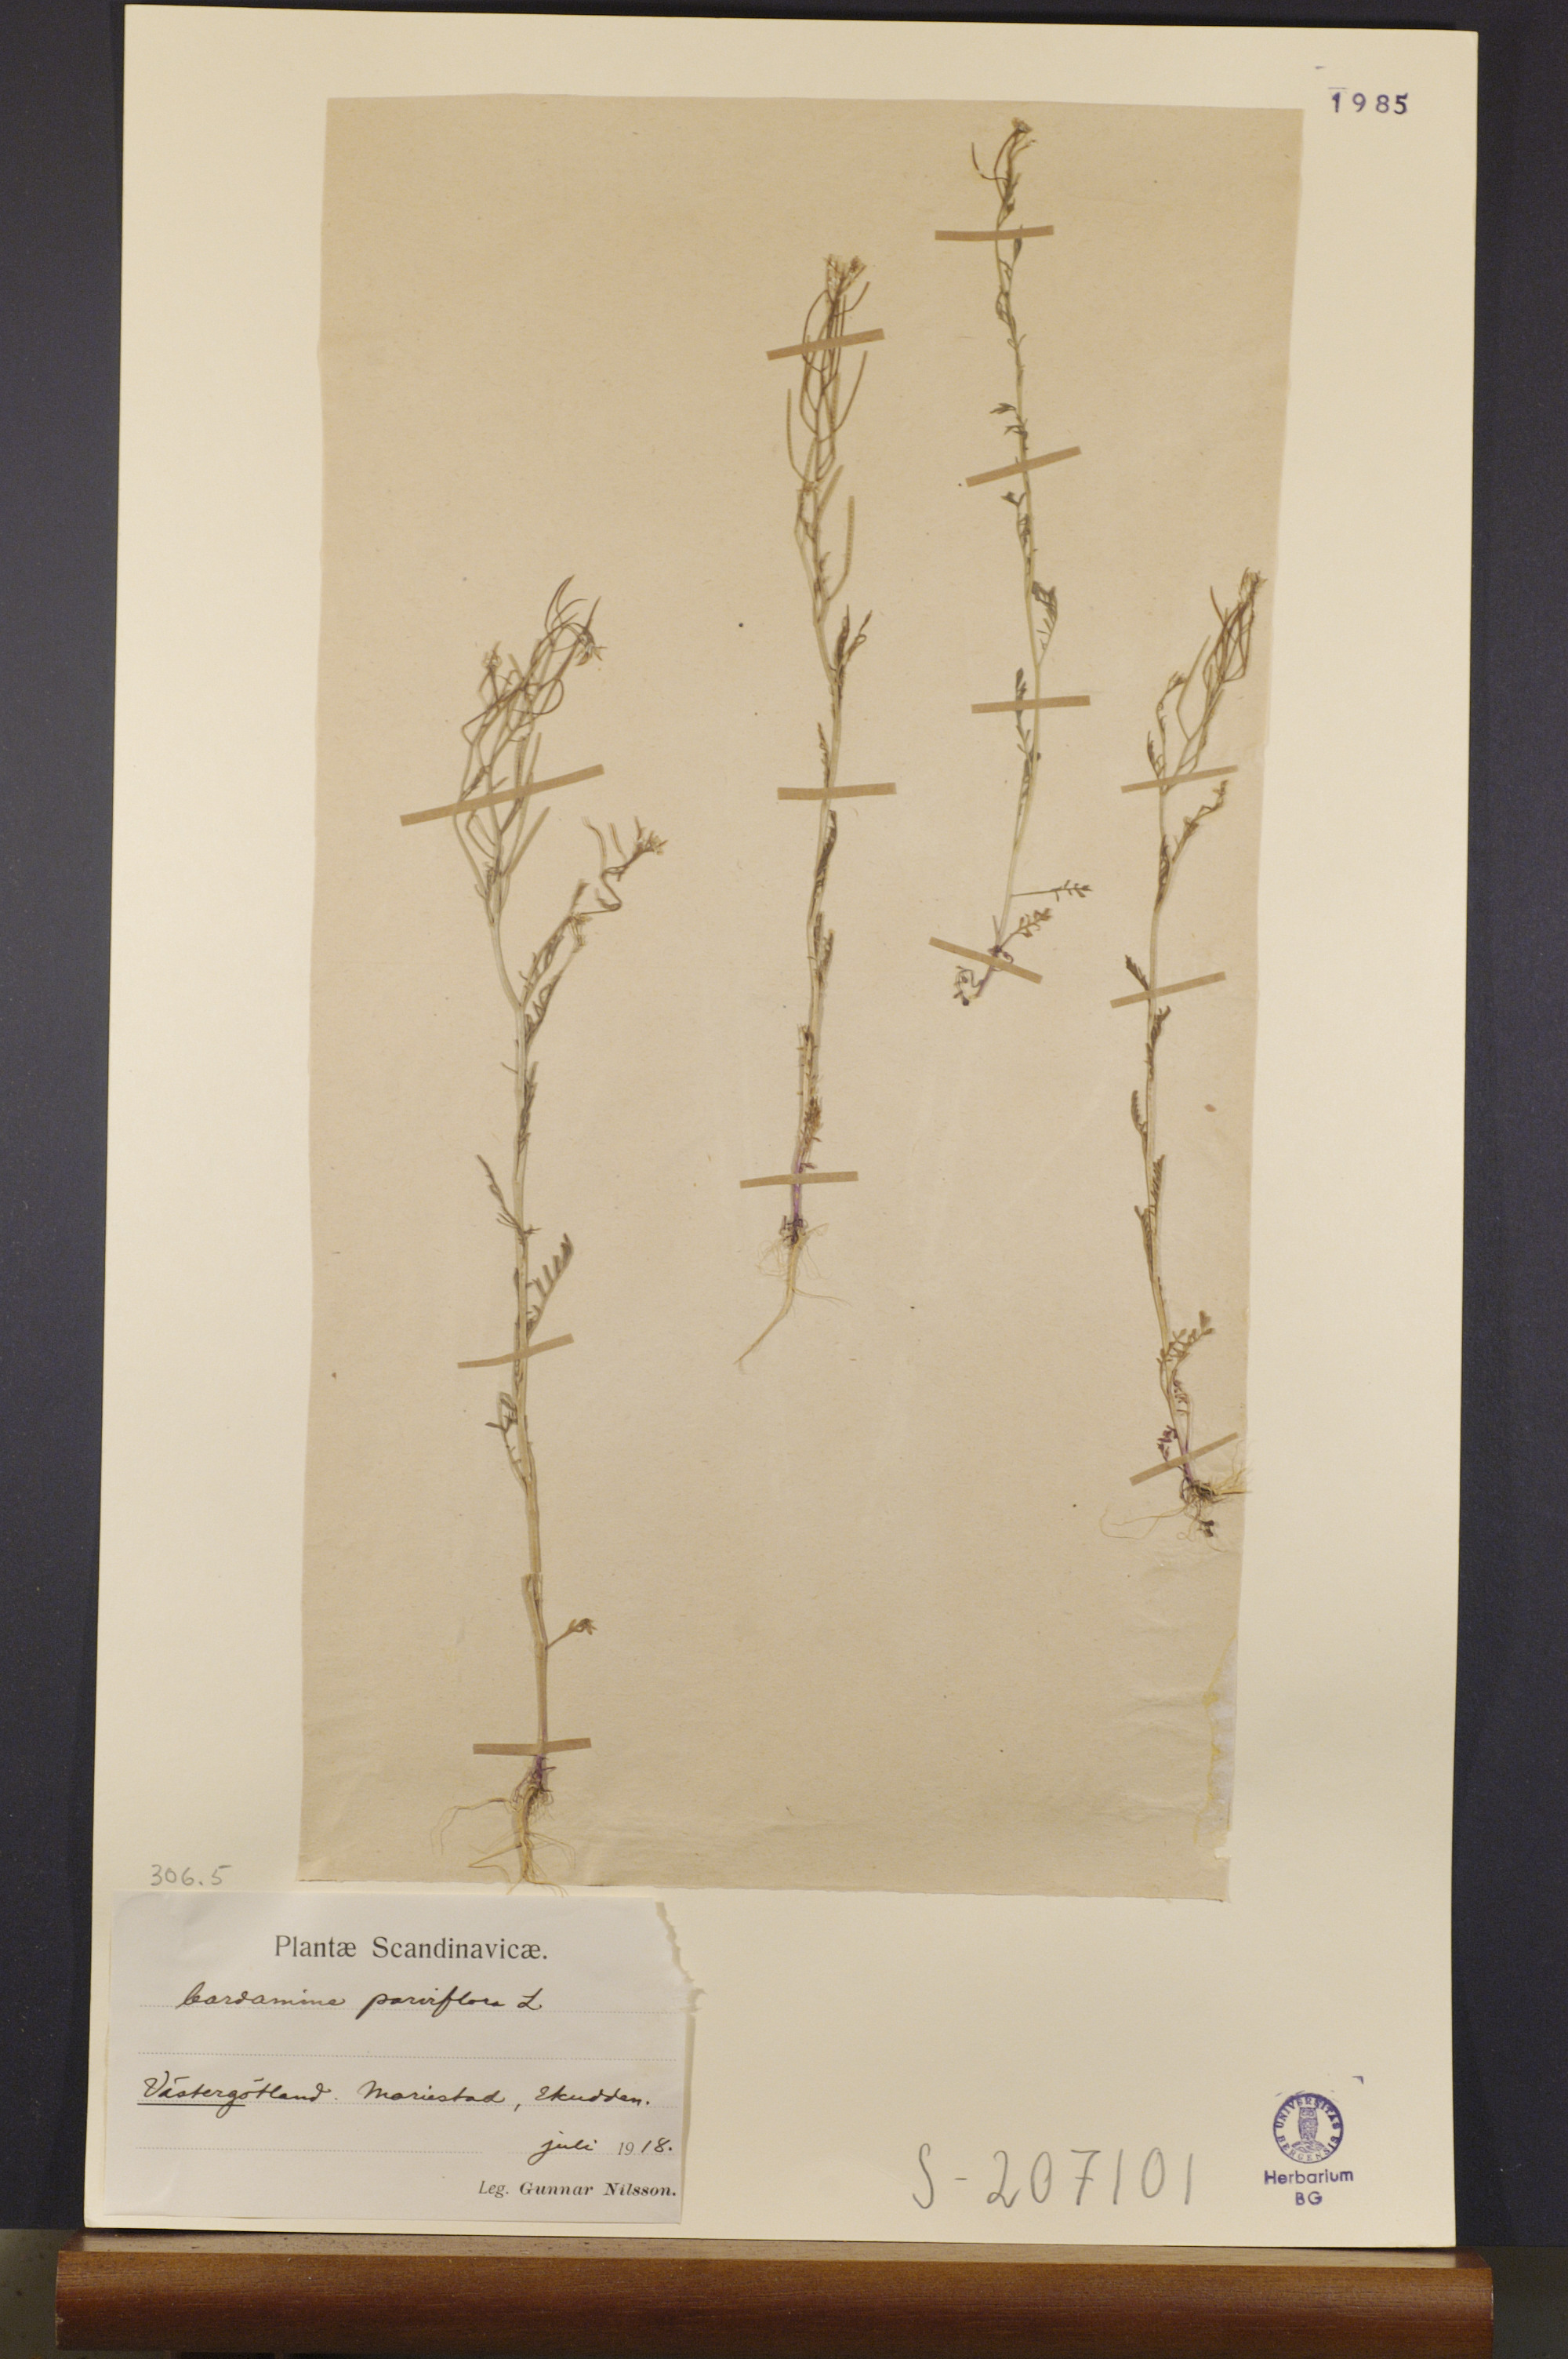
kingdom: Plantae
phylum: Tracheophyta
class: Magnoliopsida
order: Brassicales
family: Brassicaceae
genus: Cardamine
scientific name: Cardamine parviflora
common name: Sand bittercress
